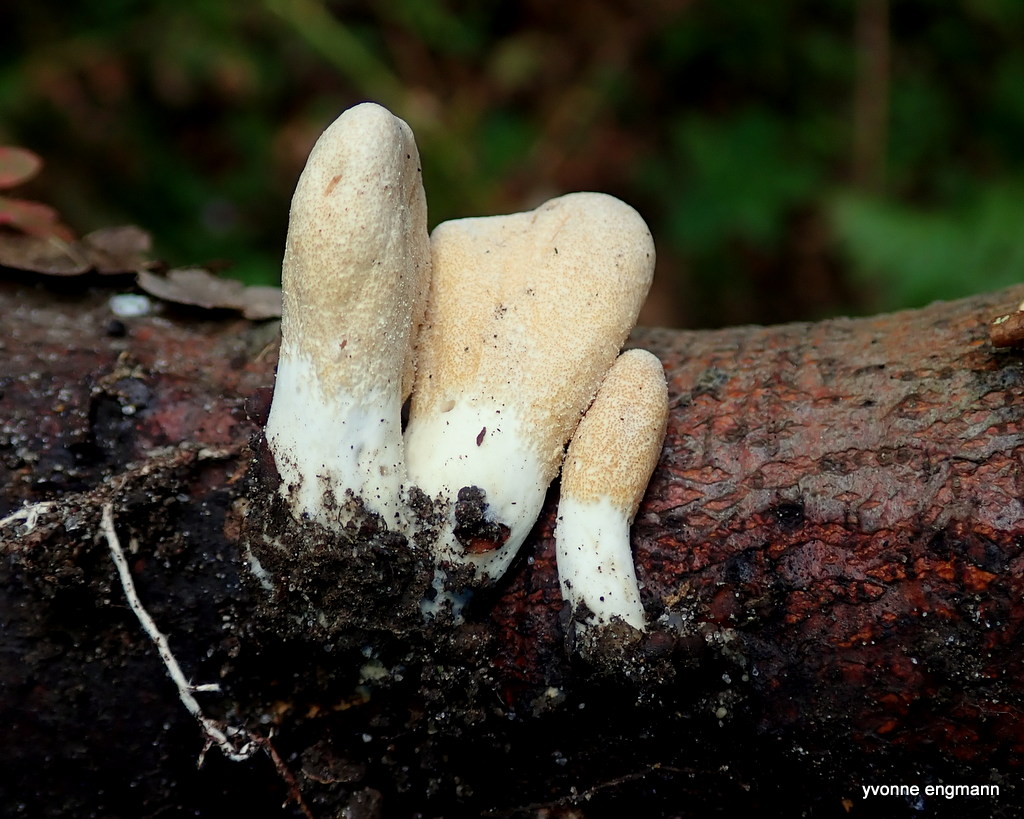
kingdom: Fungi
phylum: Ascomycota
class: Sordariomycetes
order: Hypocreales
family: Hypocreaceae
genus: Trichoderma
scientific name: Trichoderma alutaceum
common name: gevir-kødkerne
